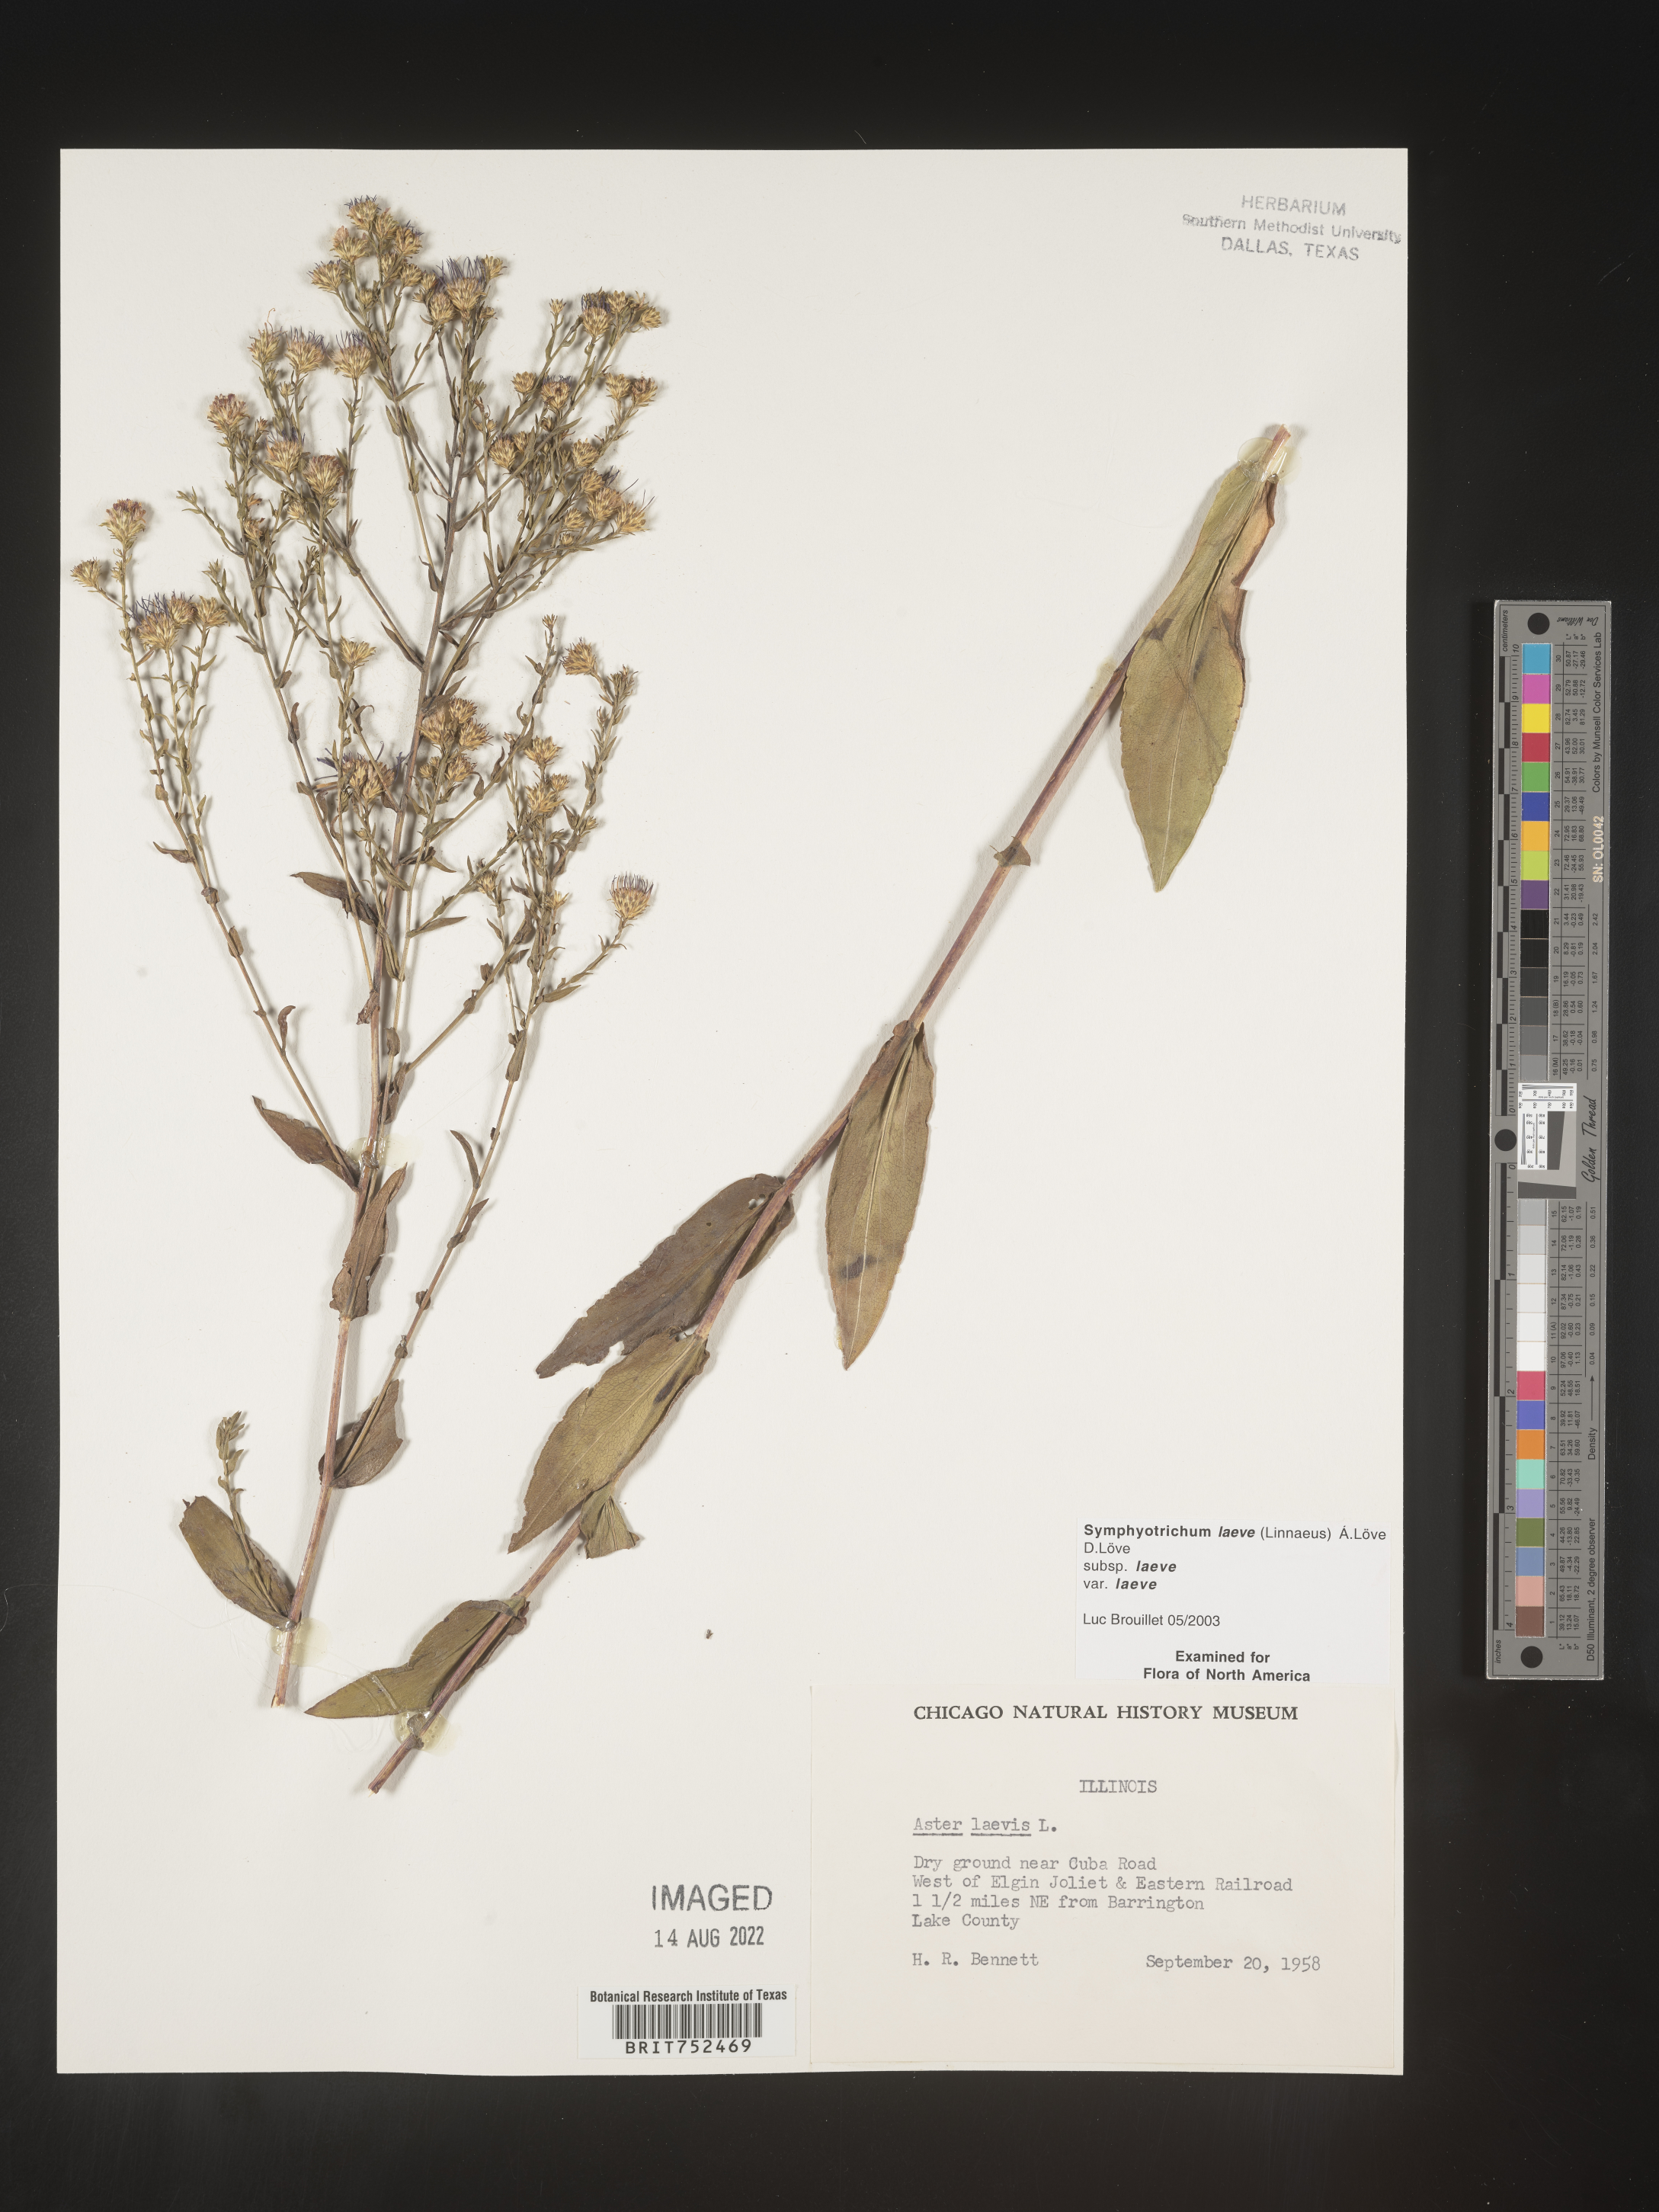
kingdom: Plantae
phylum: Tracheophyta
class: Magnoliopsida
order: Asterales
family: Asteraceae
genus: Symphyotrichum
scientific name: Symphyotrichum laeve
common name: Glaucous aster
